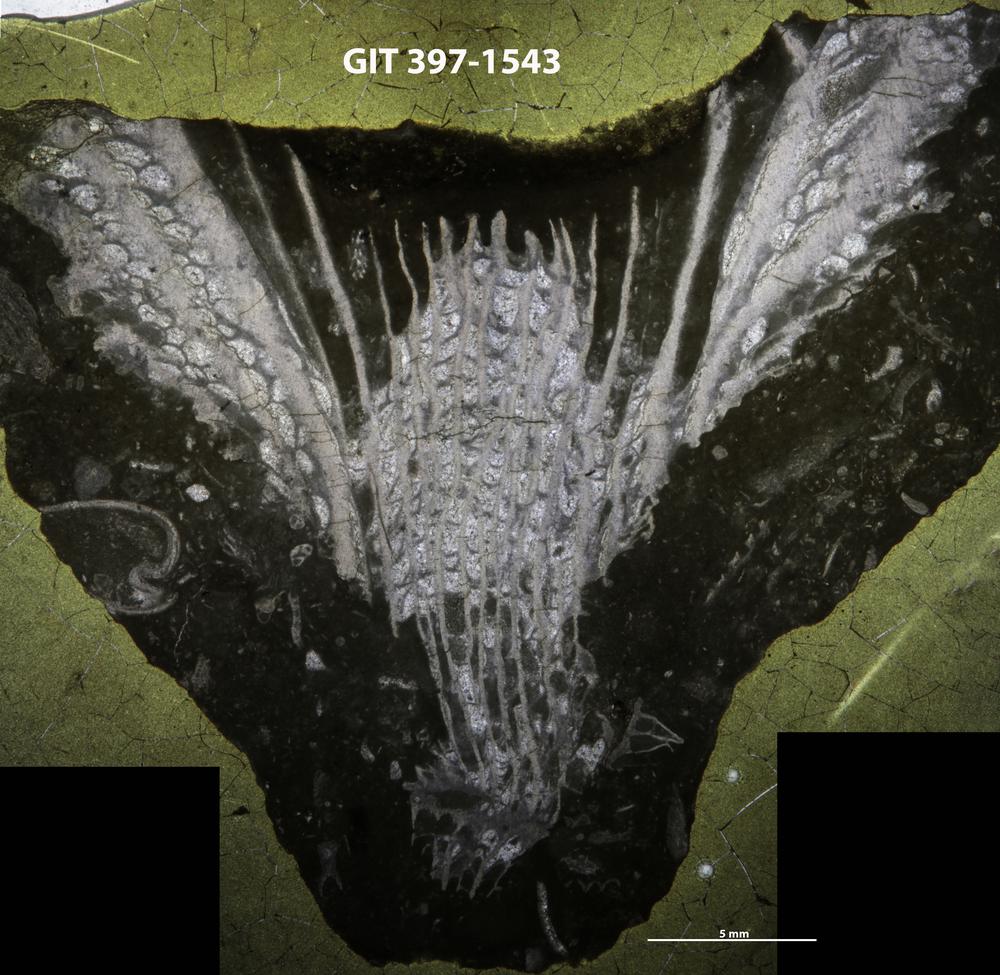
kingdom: Animalia
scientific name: Animalia
